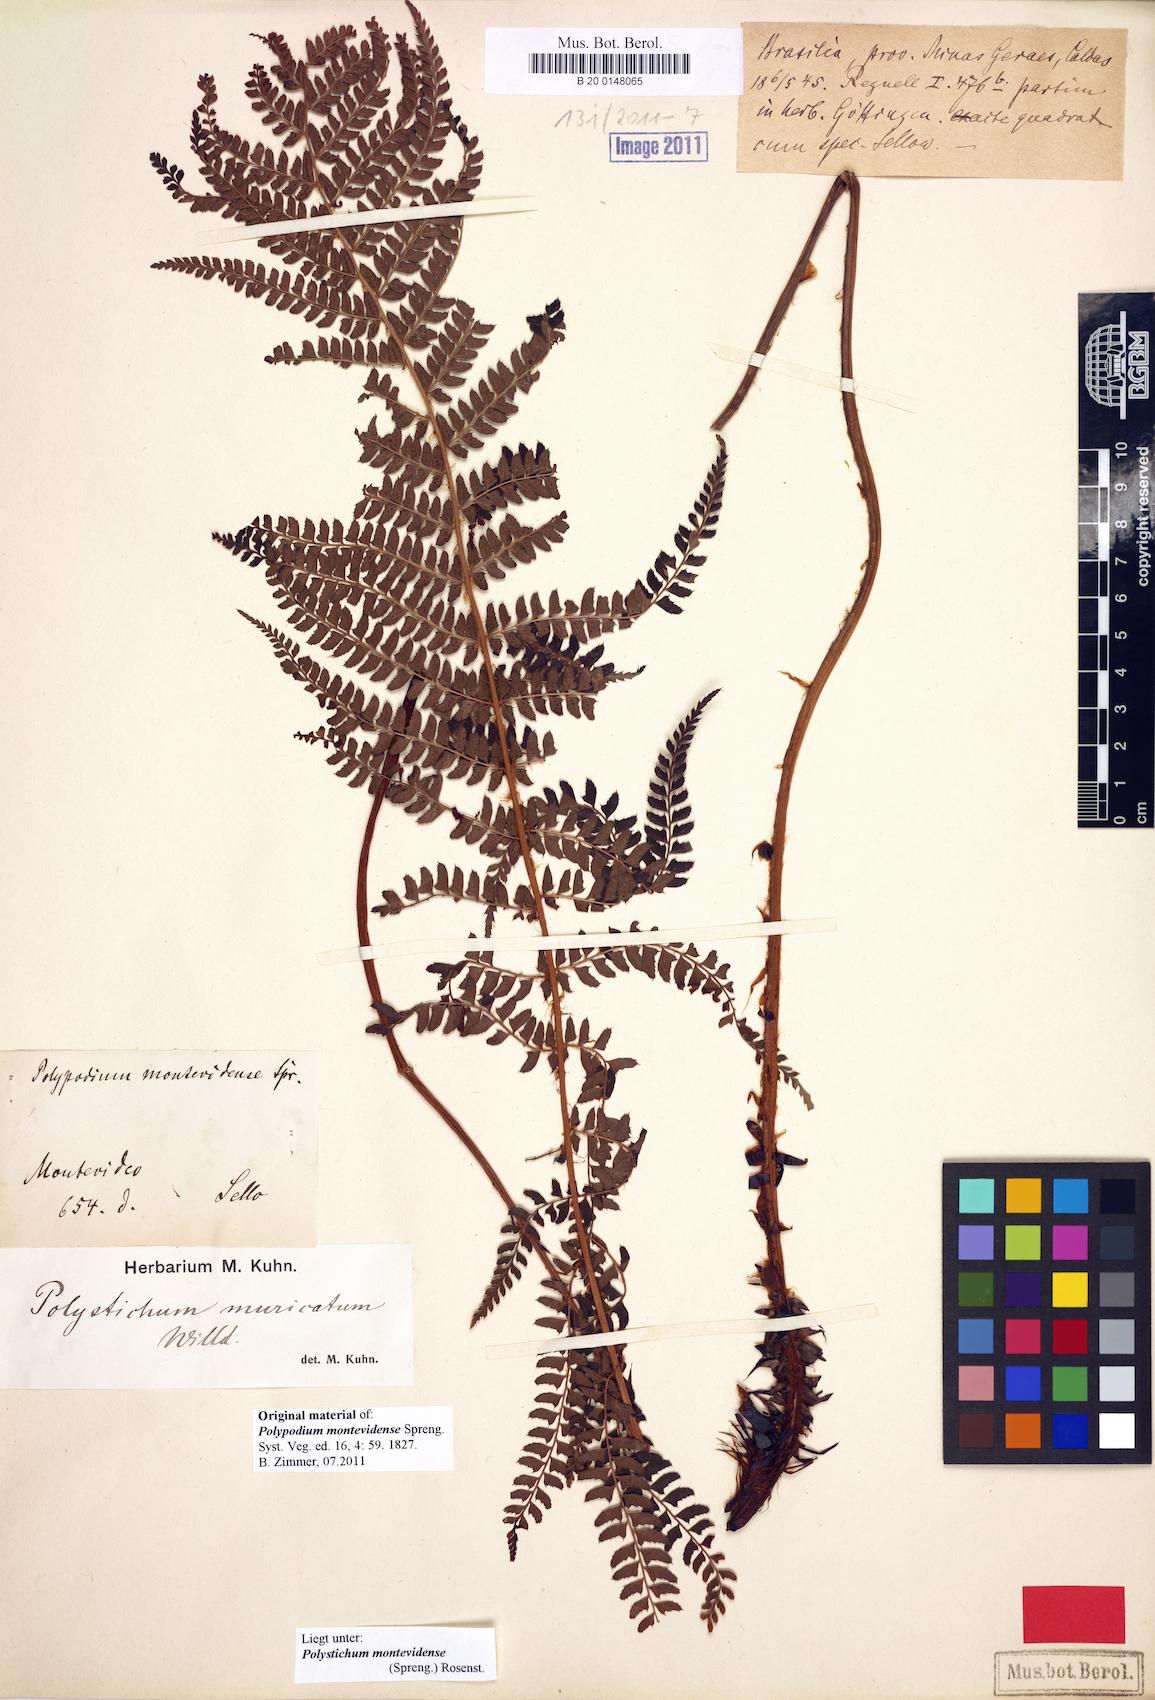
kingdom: Plantae
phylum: Tracheophyta
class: Polypodiopsida
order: Polypodiales
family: Dryopteridaceae
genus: Polystichum
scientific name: Polystichum montevidense
